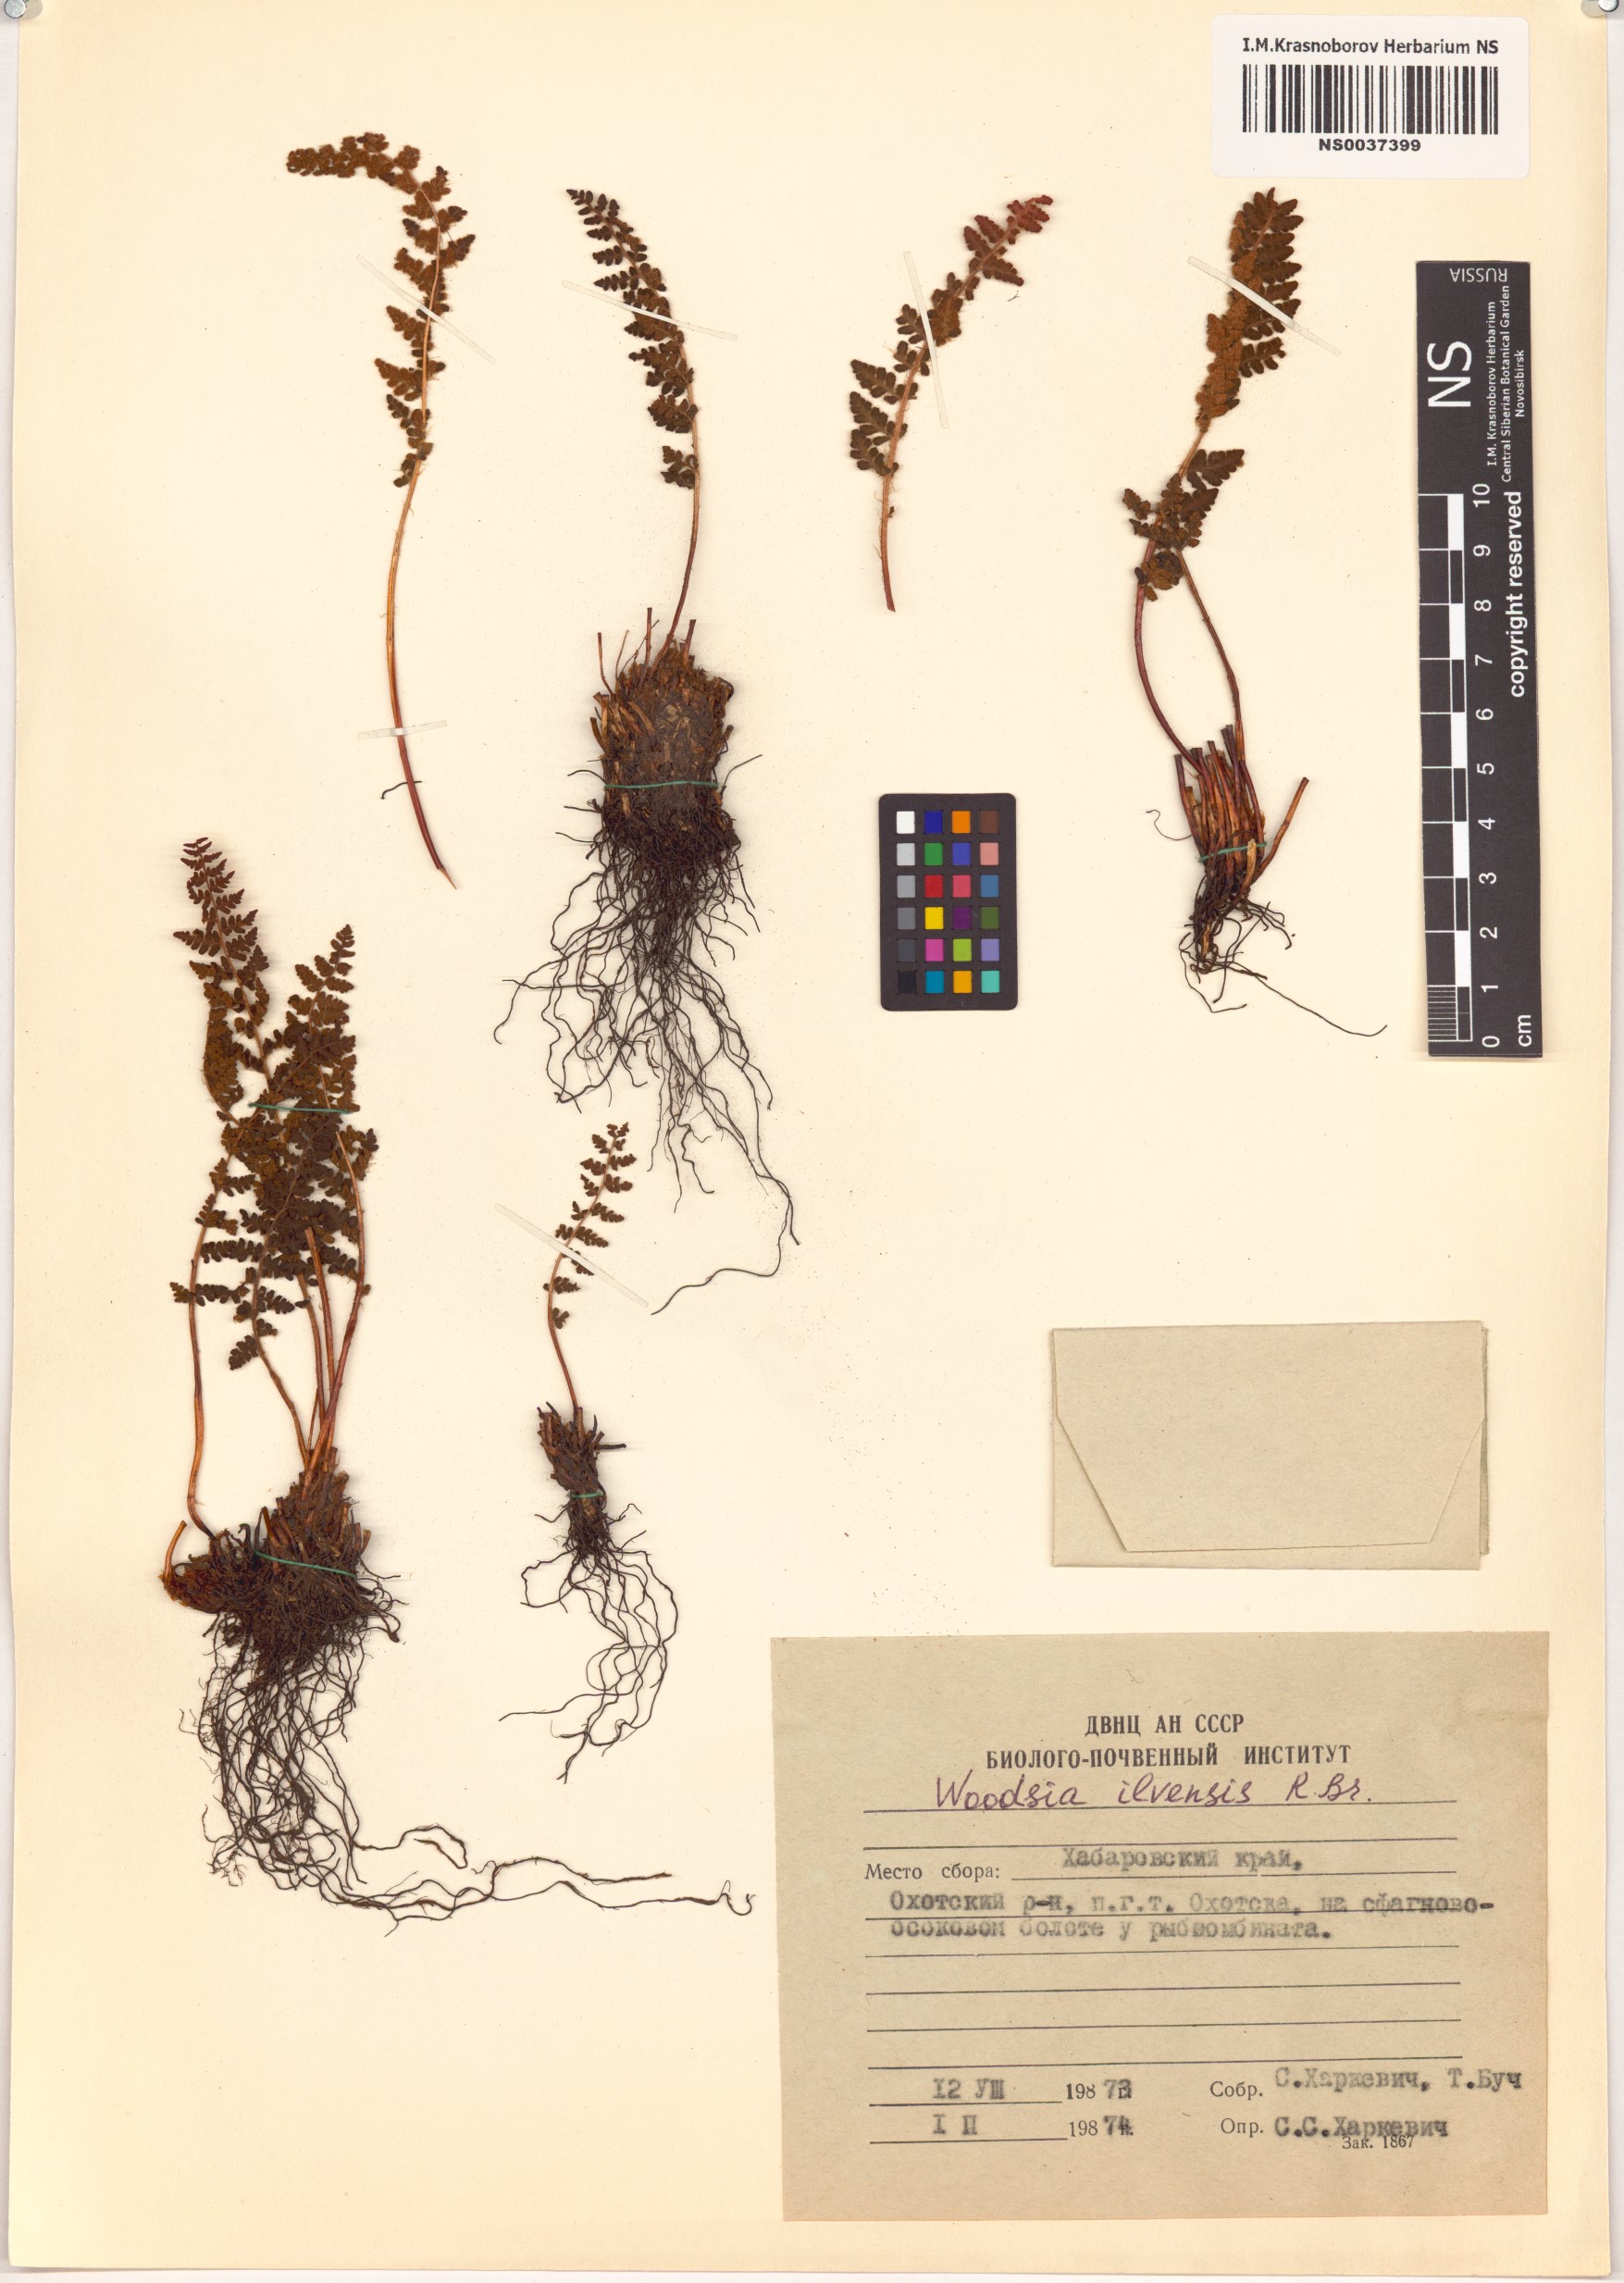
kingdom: Plantae
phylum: Tracheophyta
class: Polypodiopsida
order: Polypodiales
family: Woodsiaceae
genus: Woodsia
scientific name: Woodsia ilvensis
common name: Fragrant woodsia
